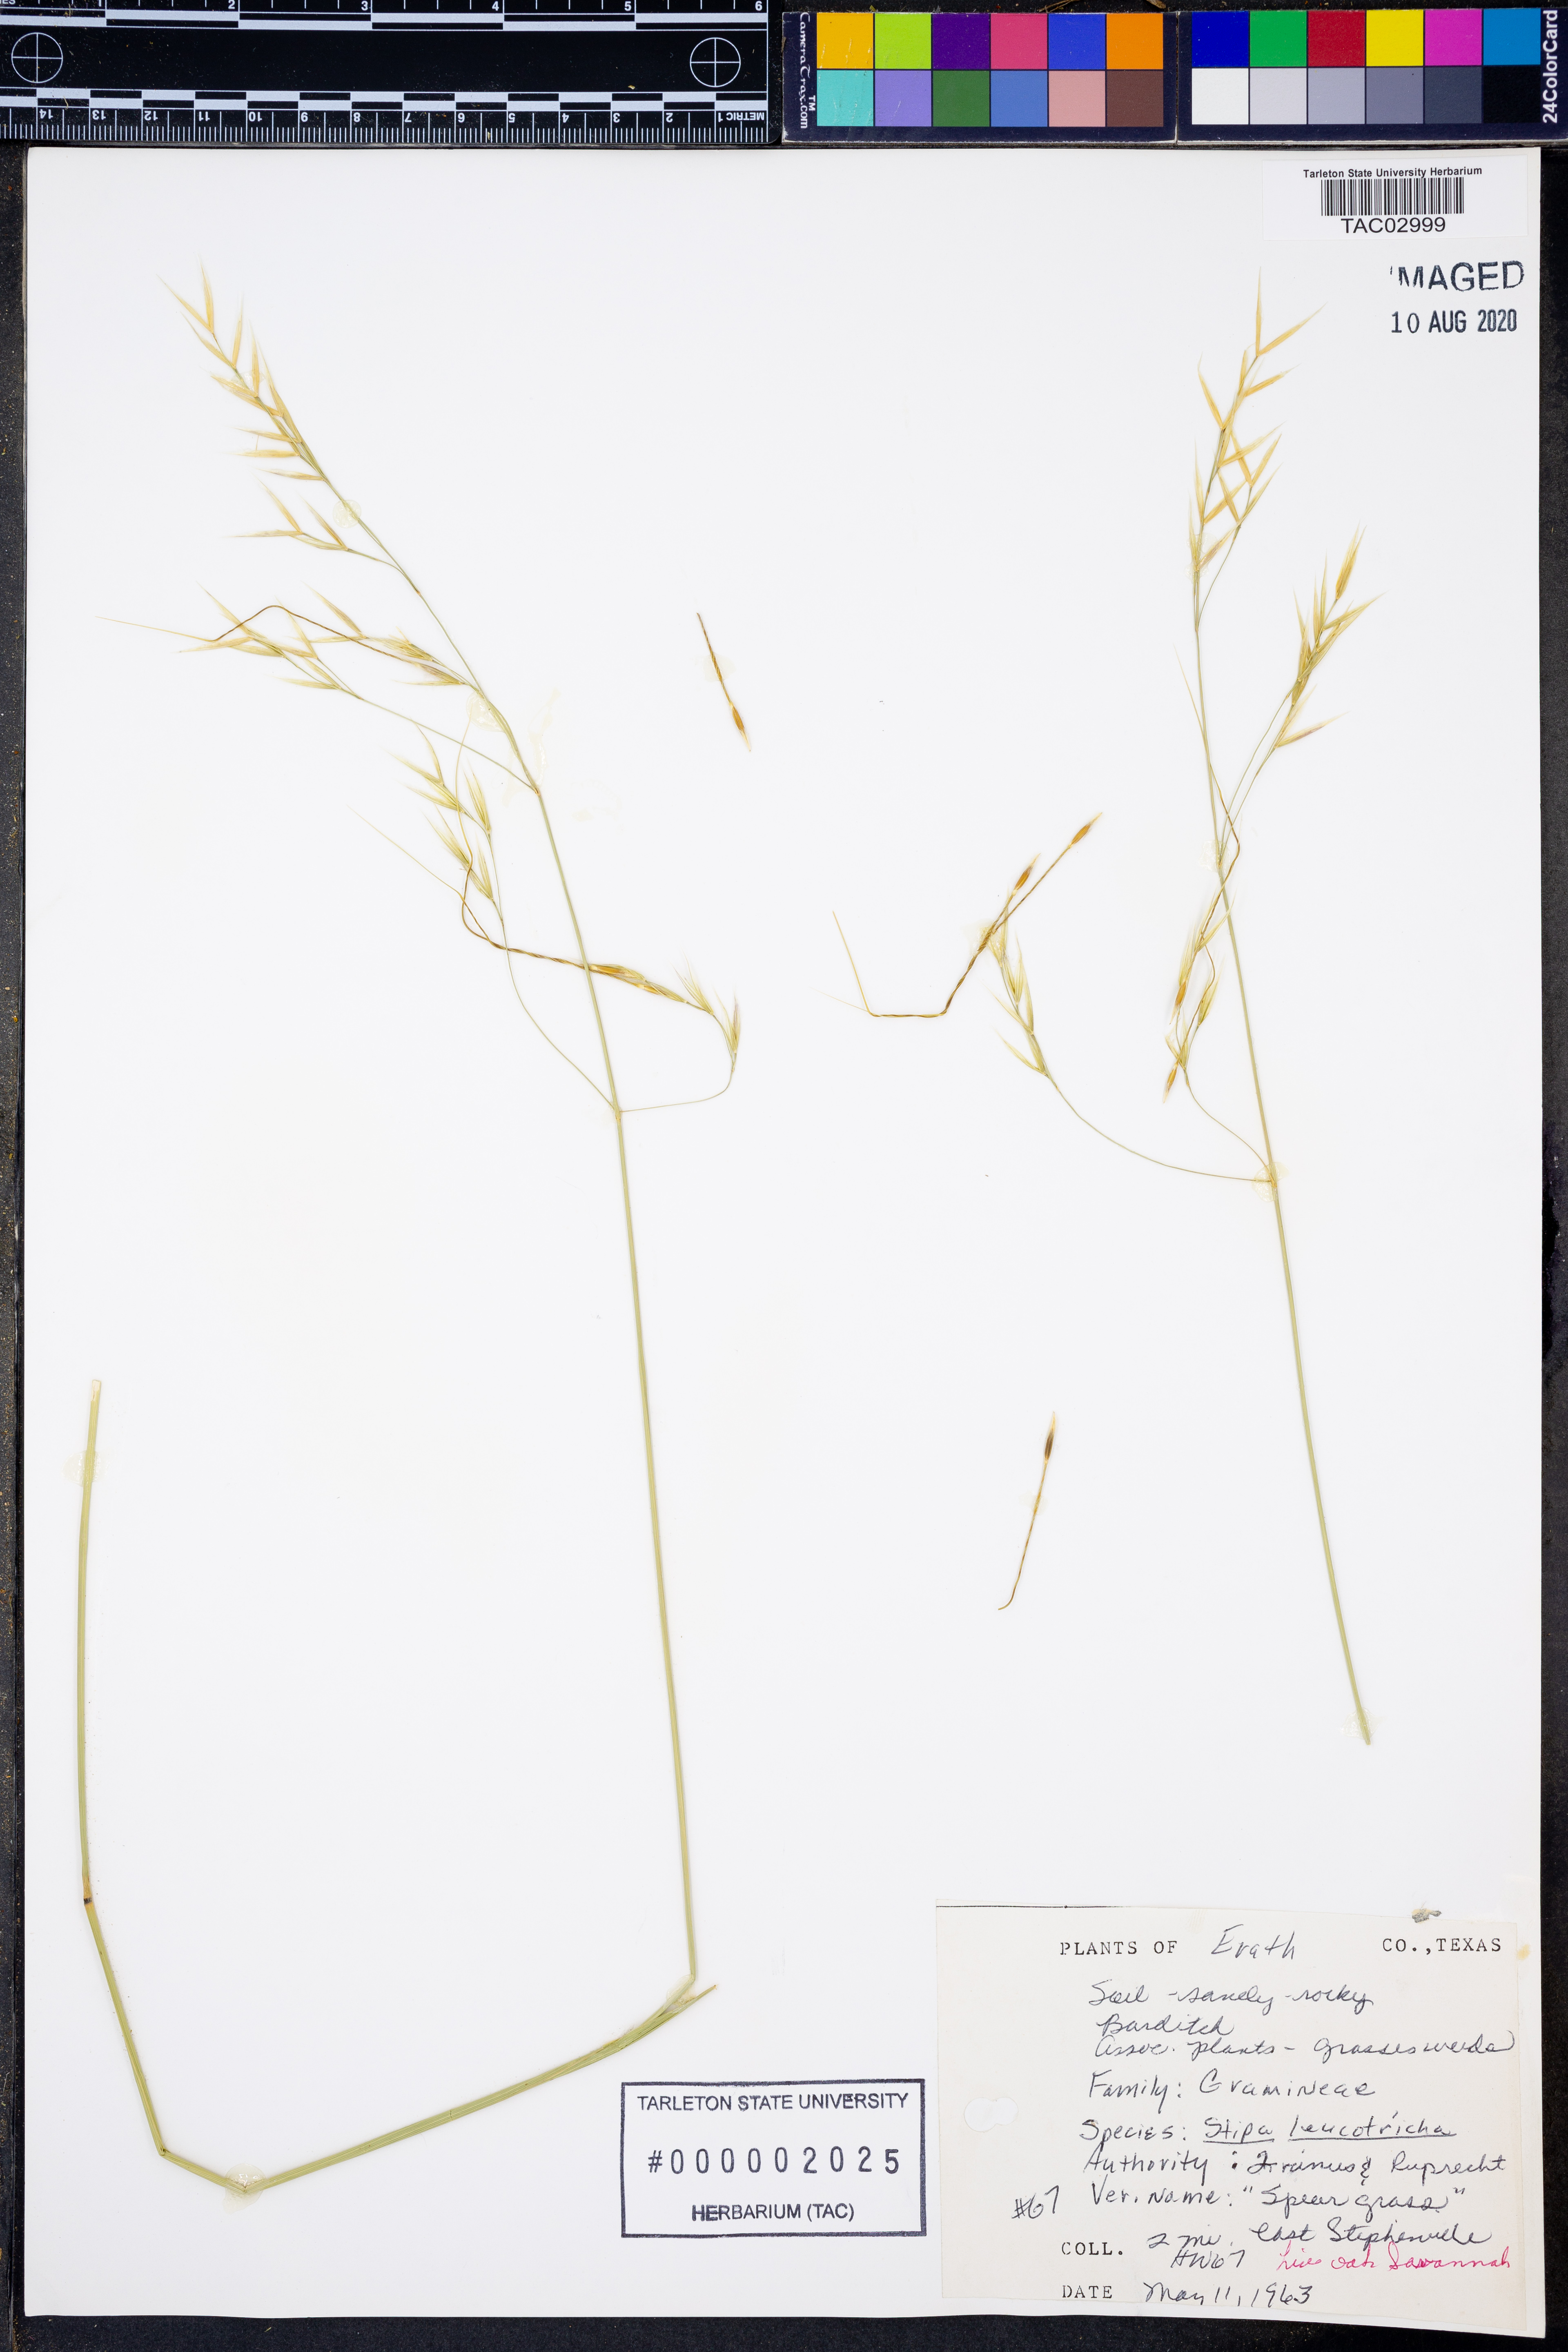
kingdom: Plantae
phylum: Tracheophyta
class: Liliopsida
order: Poales
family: Poaceae
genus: Nassella
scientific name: Nassella leucotricha
